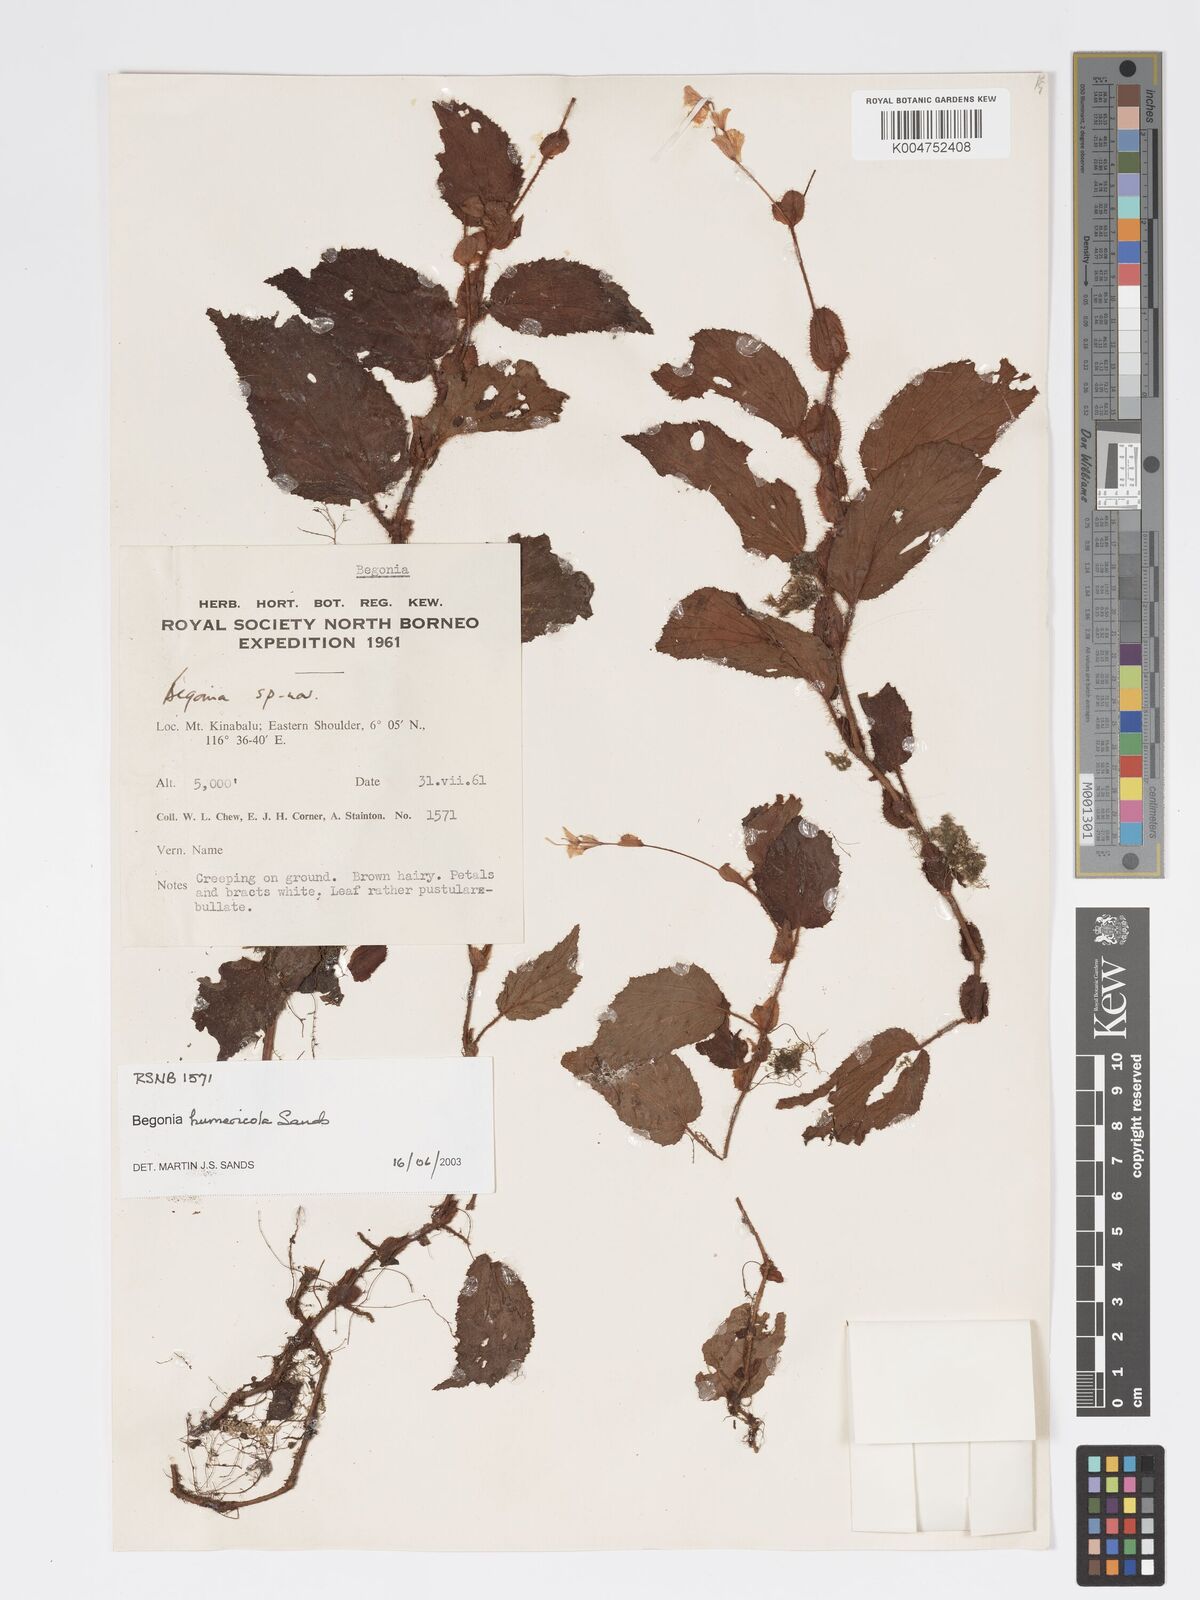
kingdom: Plantae
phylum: Tracheophyta
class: Magnoliopsida
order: Cucurbitales
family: Begoniaceae
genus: Begonia
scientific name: Begonia humericola
